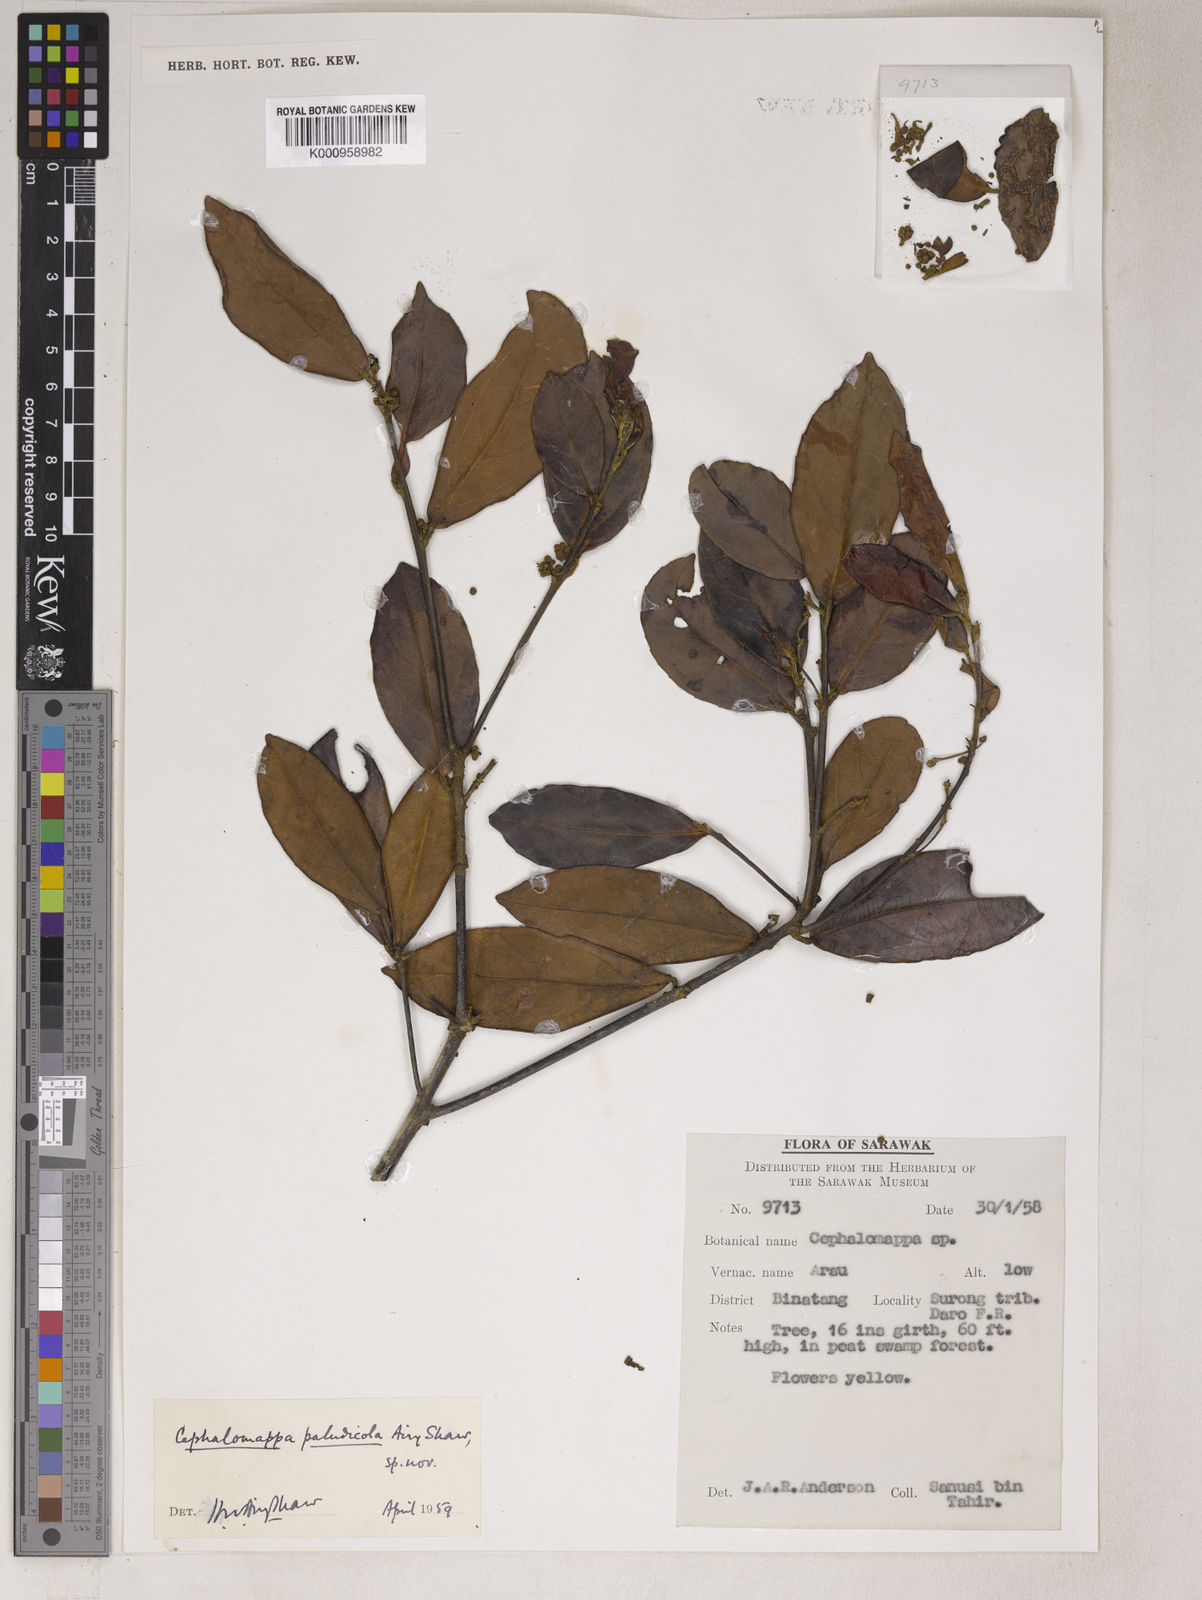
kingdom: Plantae
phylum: Tracheophyta
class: Magnoliopsida
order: Malpighiales
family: Euphorbiaceae
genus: Cephalomappa
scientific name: Cephalomappa paludicola
